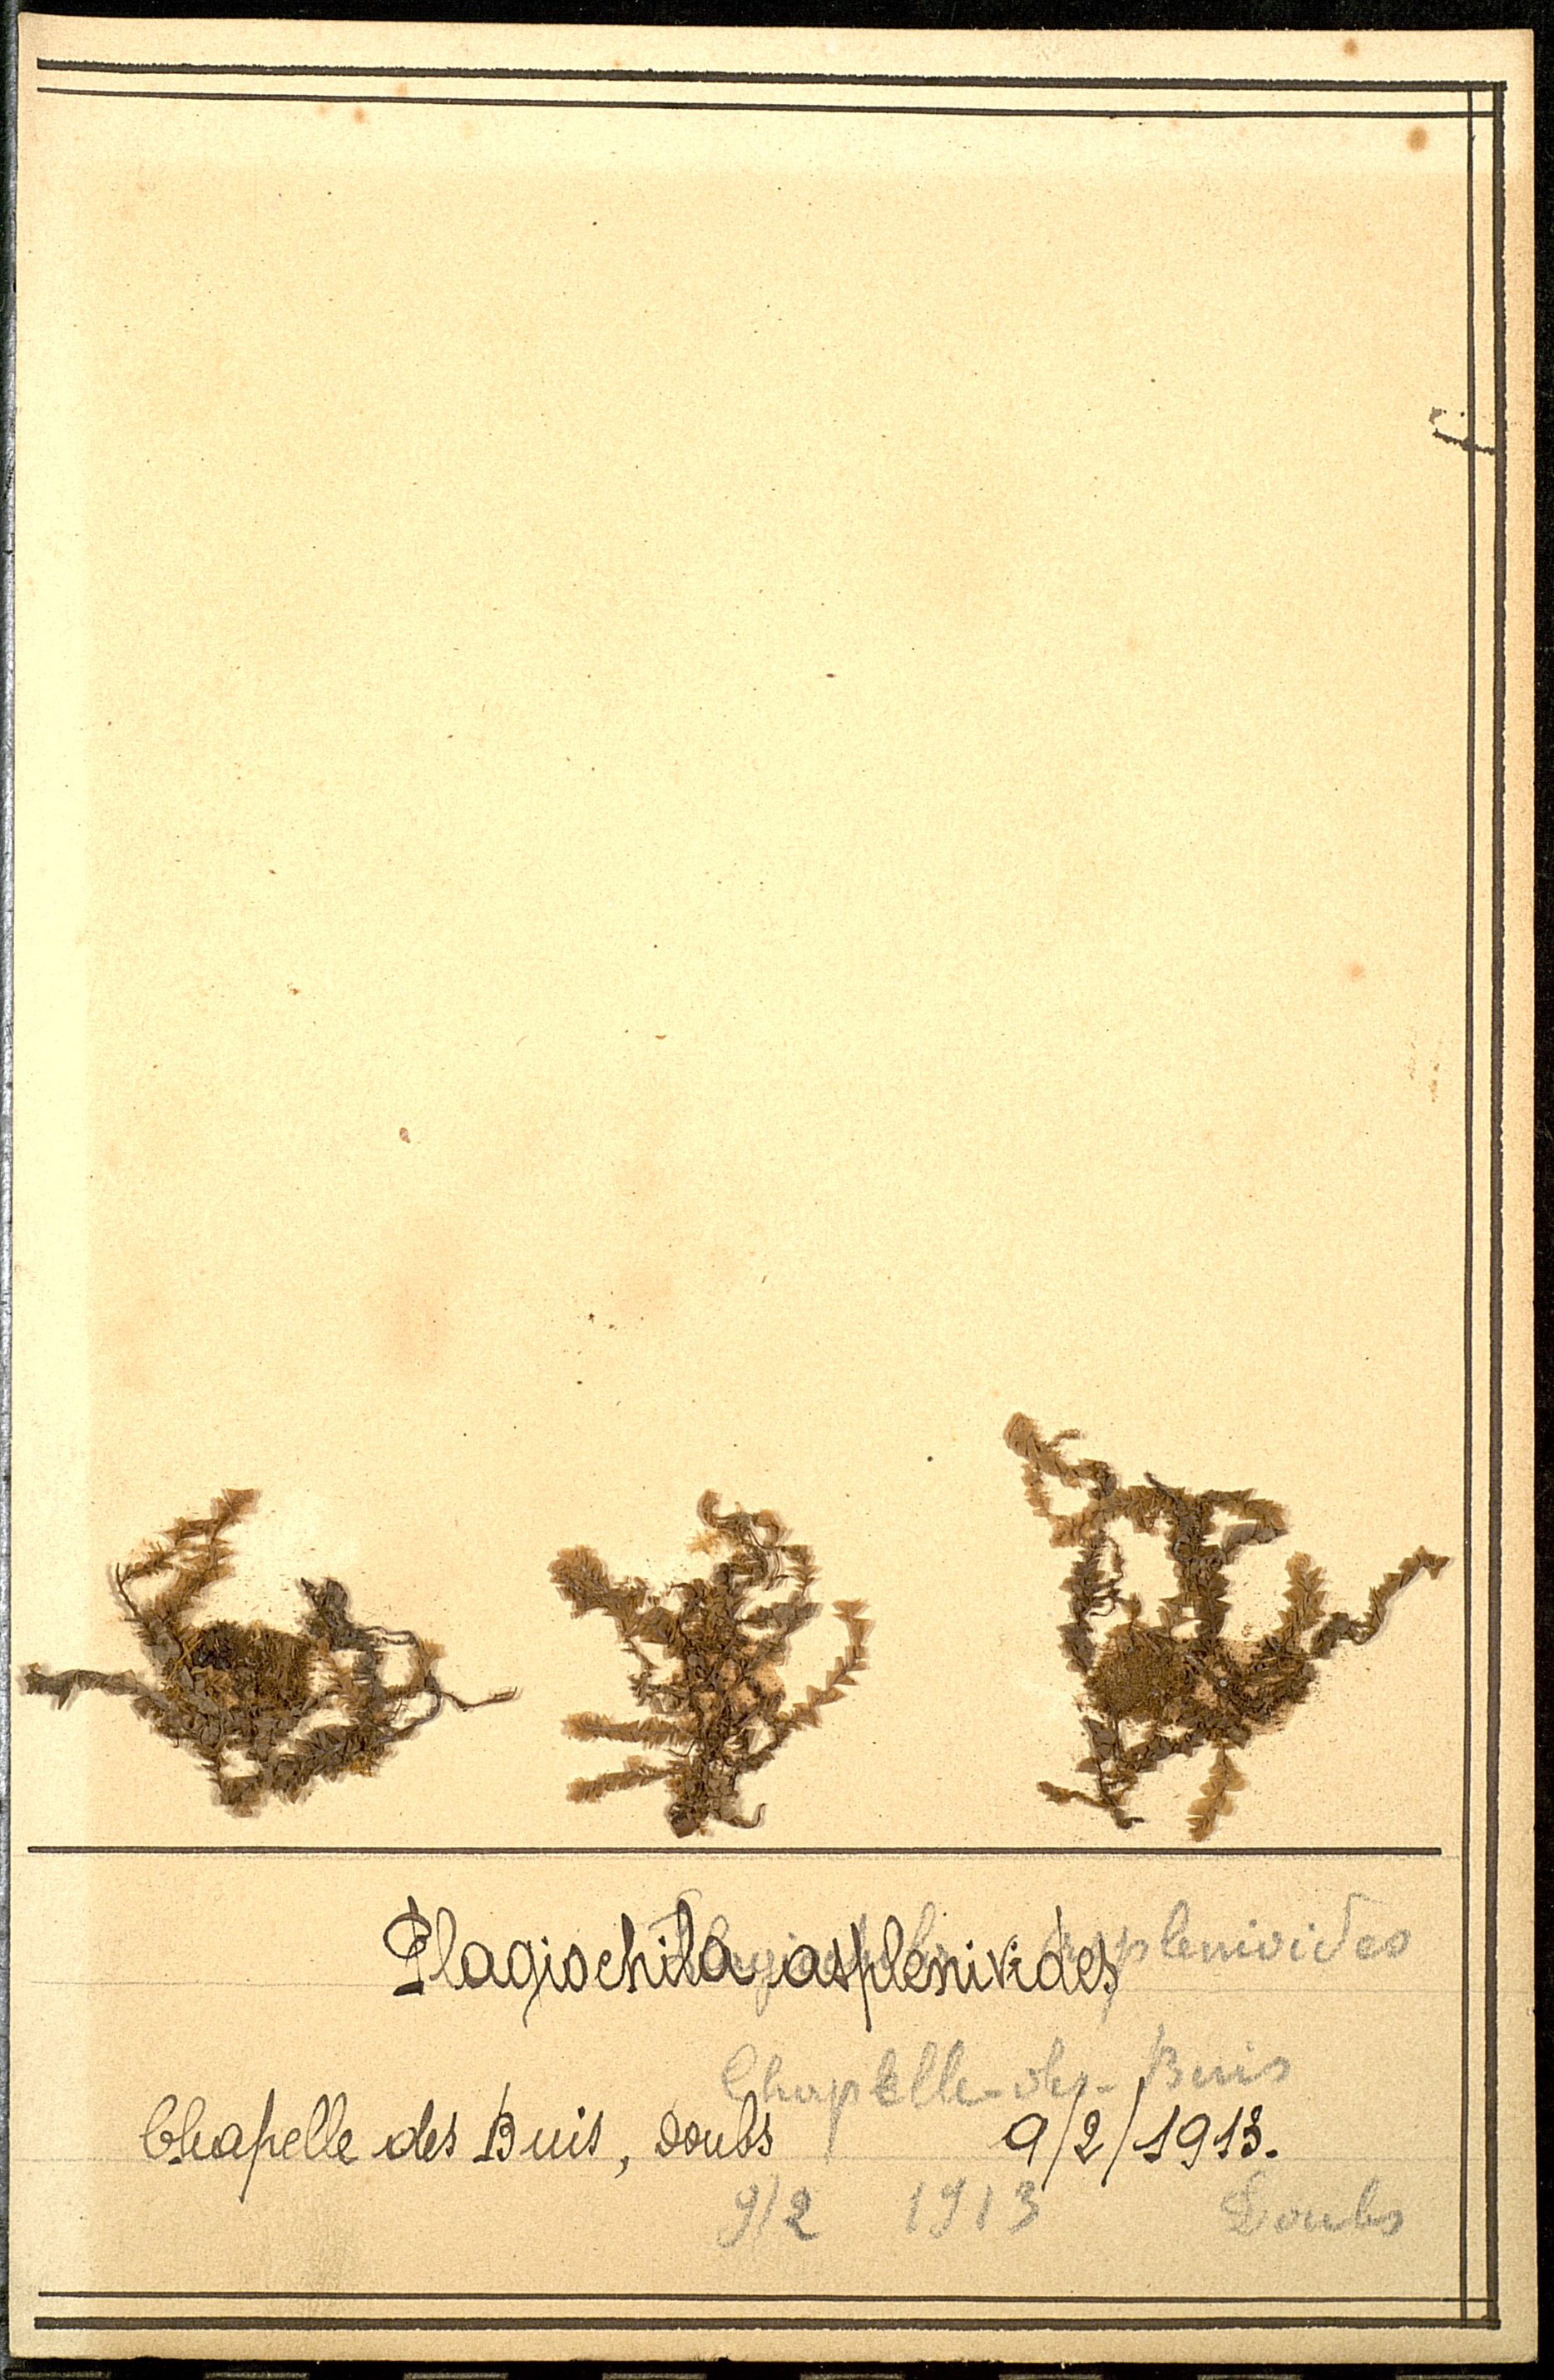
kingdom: Plantae
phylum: Marchantiophyta
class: Jungermanniopsida
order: Jungermanniales
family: Plagiochilaceae
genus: Plagiochila
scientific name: Plagiochila asplenioides
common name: Greater featherwort
